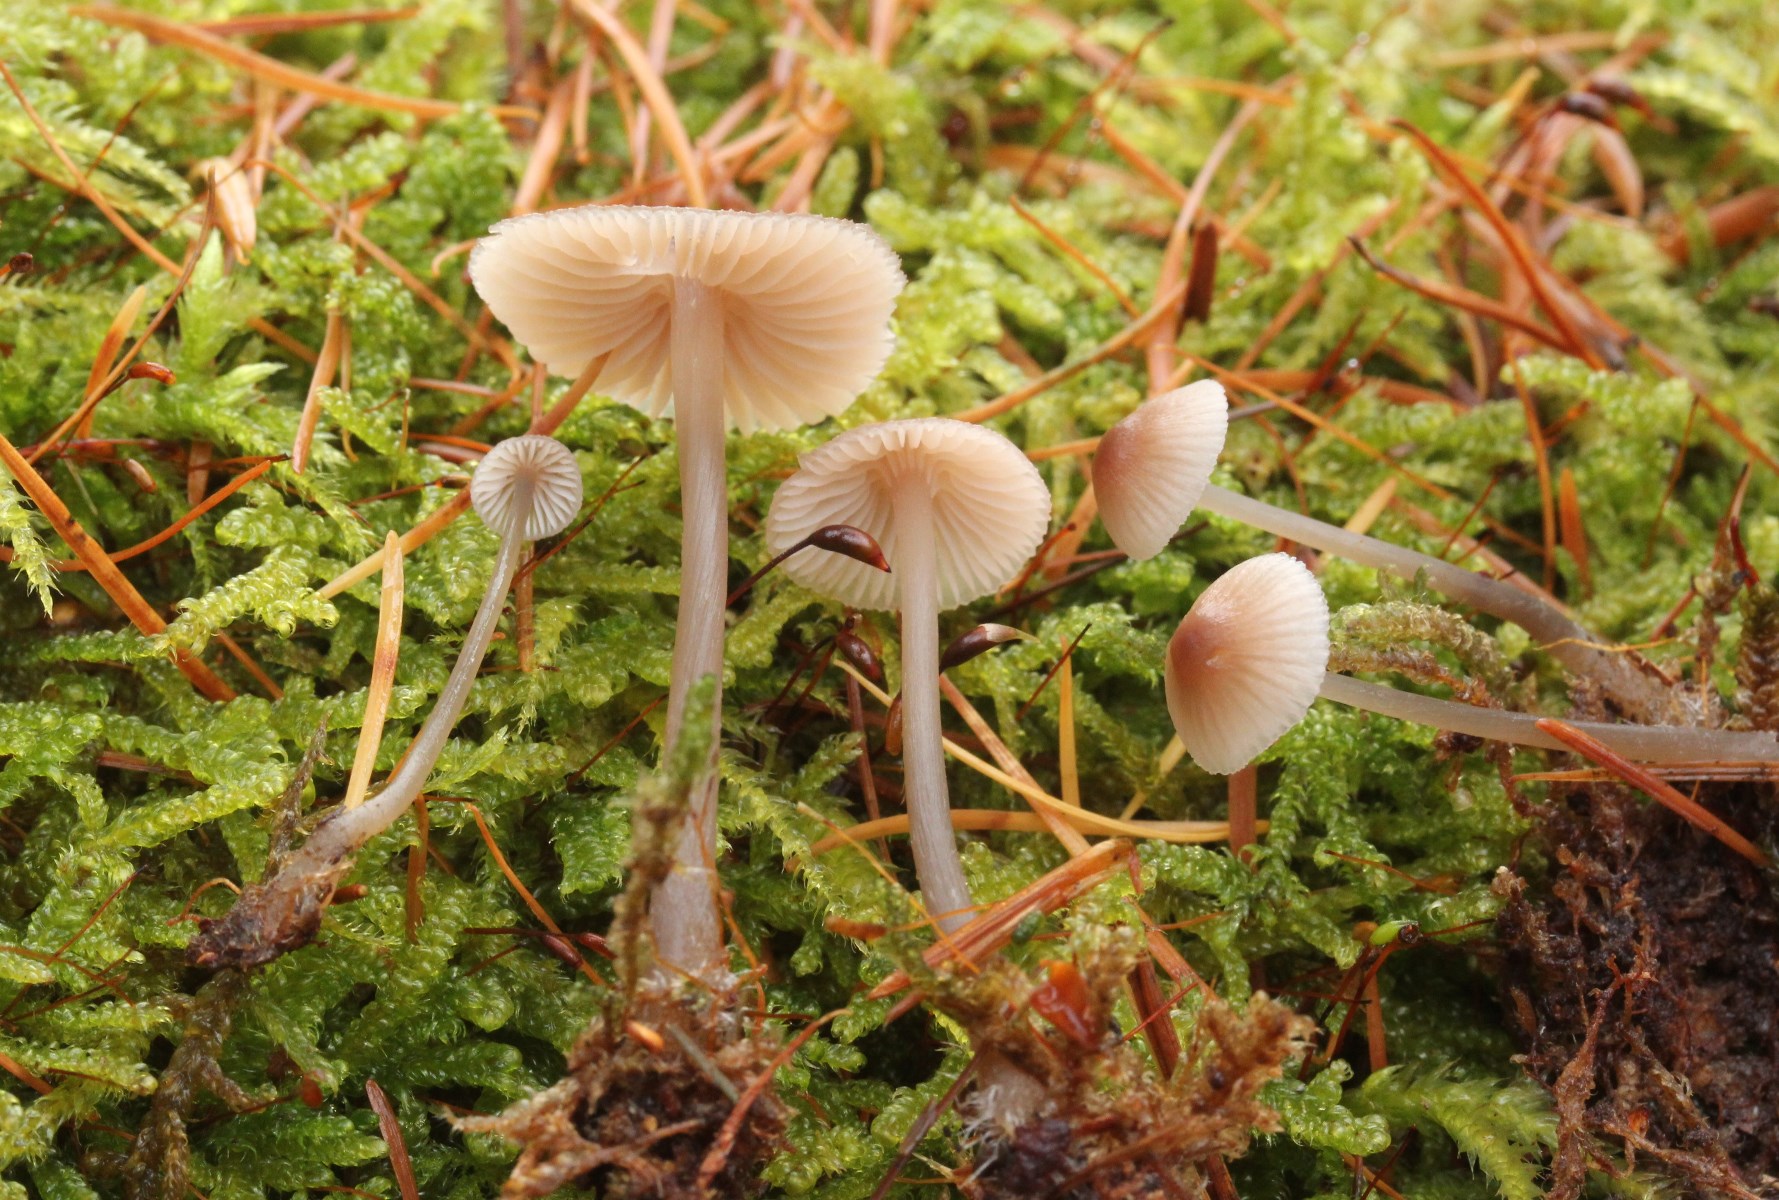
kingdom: Fungi
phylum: Basidiomycota
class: Agaricomycetes
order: Agaricales
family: Mycenaceae
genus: Mycena
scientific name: Mycena metata
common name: rødlig huesvamp
